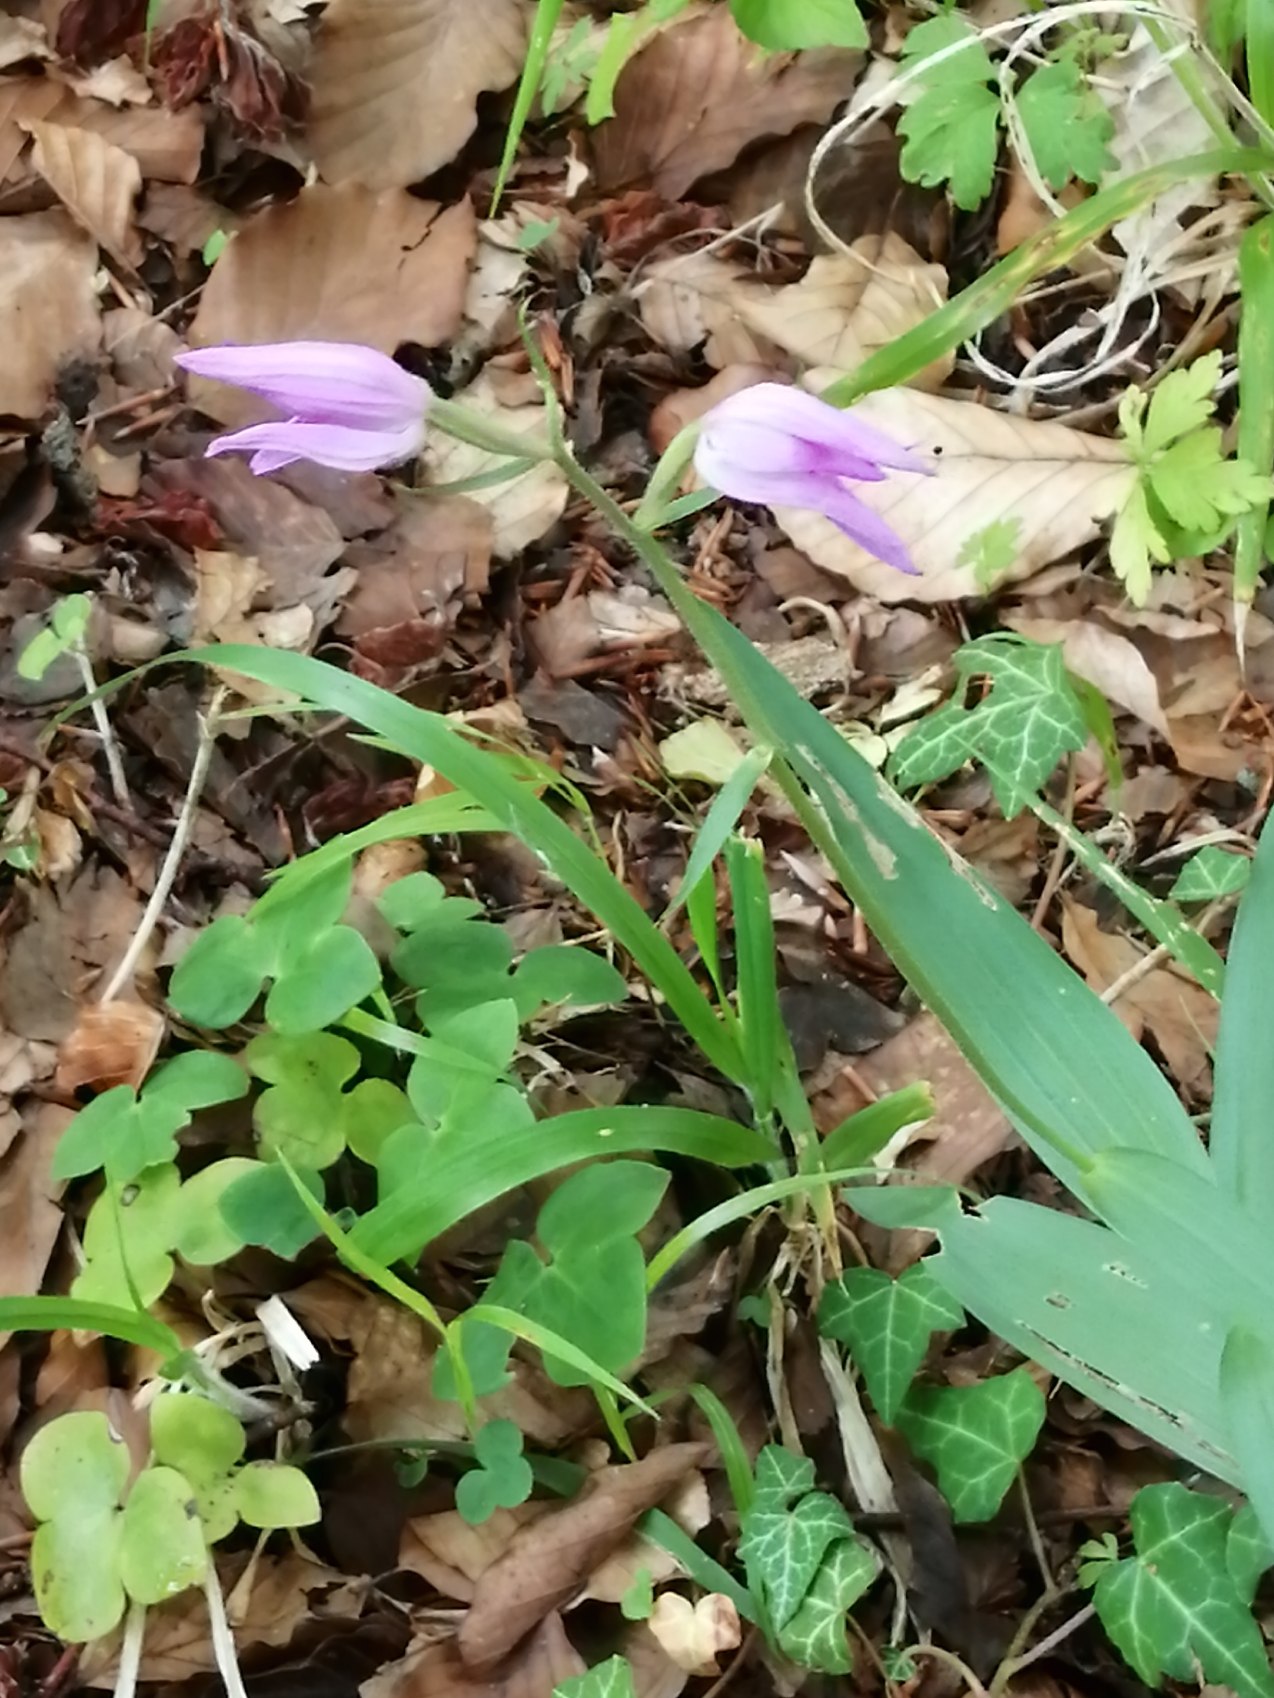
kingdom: Plantae
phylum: Tracheophyta
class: Liliopsida
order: Asparagales
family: Orchidaceae
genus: Cephalanthera
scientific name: Cephalanthera rubra
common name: Rød skovlilje
